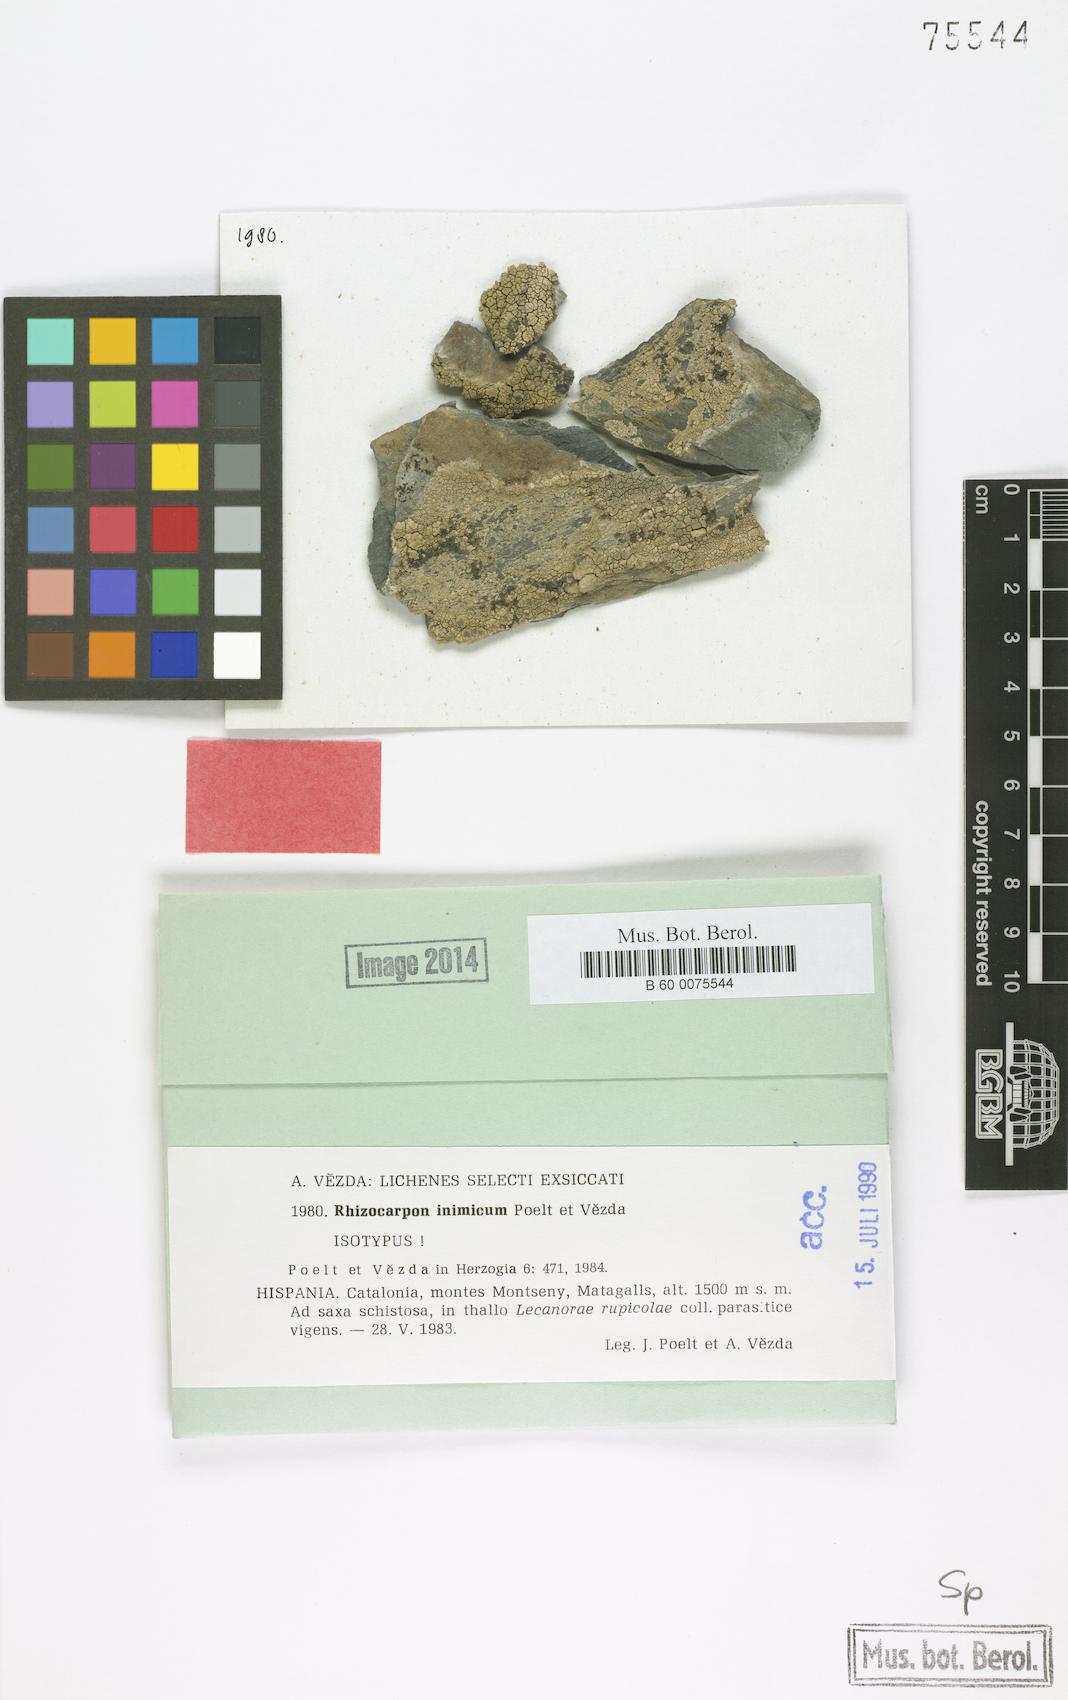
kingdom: Fungi
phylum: Ascomycota
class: Lecanoromycetes
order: Rhizocarpales
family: Rhizocarpaceae
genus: Rhizocarpon
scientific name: Rhizocarpon inimicum
